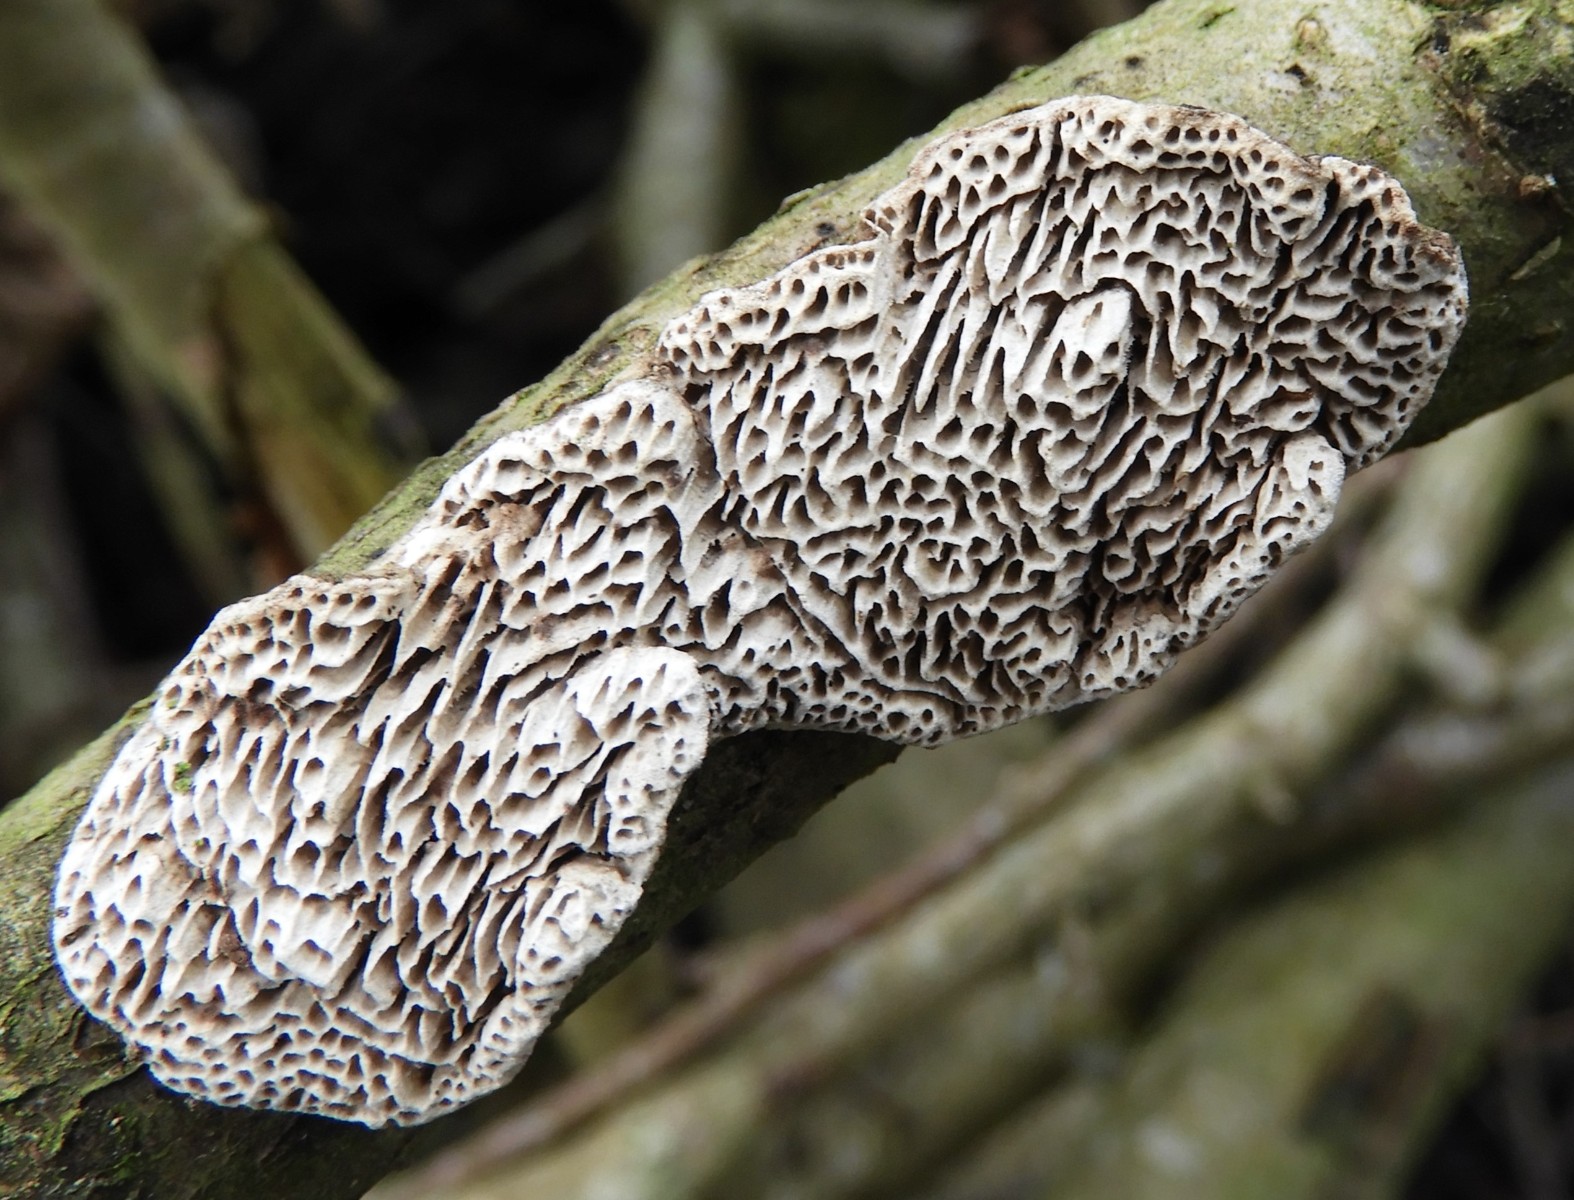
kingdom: Fungi
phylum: Basidiomycota
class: Agaricomycetes
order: Polyporales
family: Polyporaceae
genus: Podofomes
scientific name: Podofomes mollis
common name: blød begporesvamp
